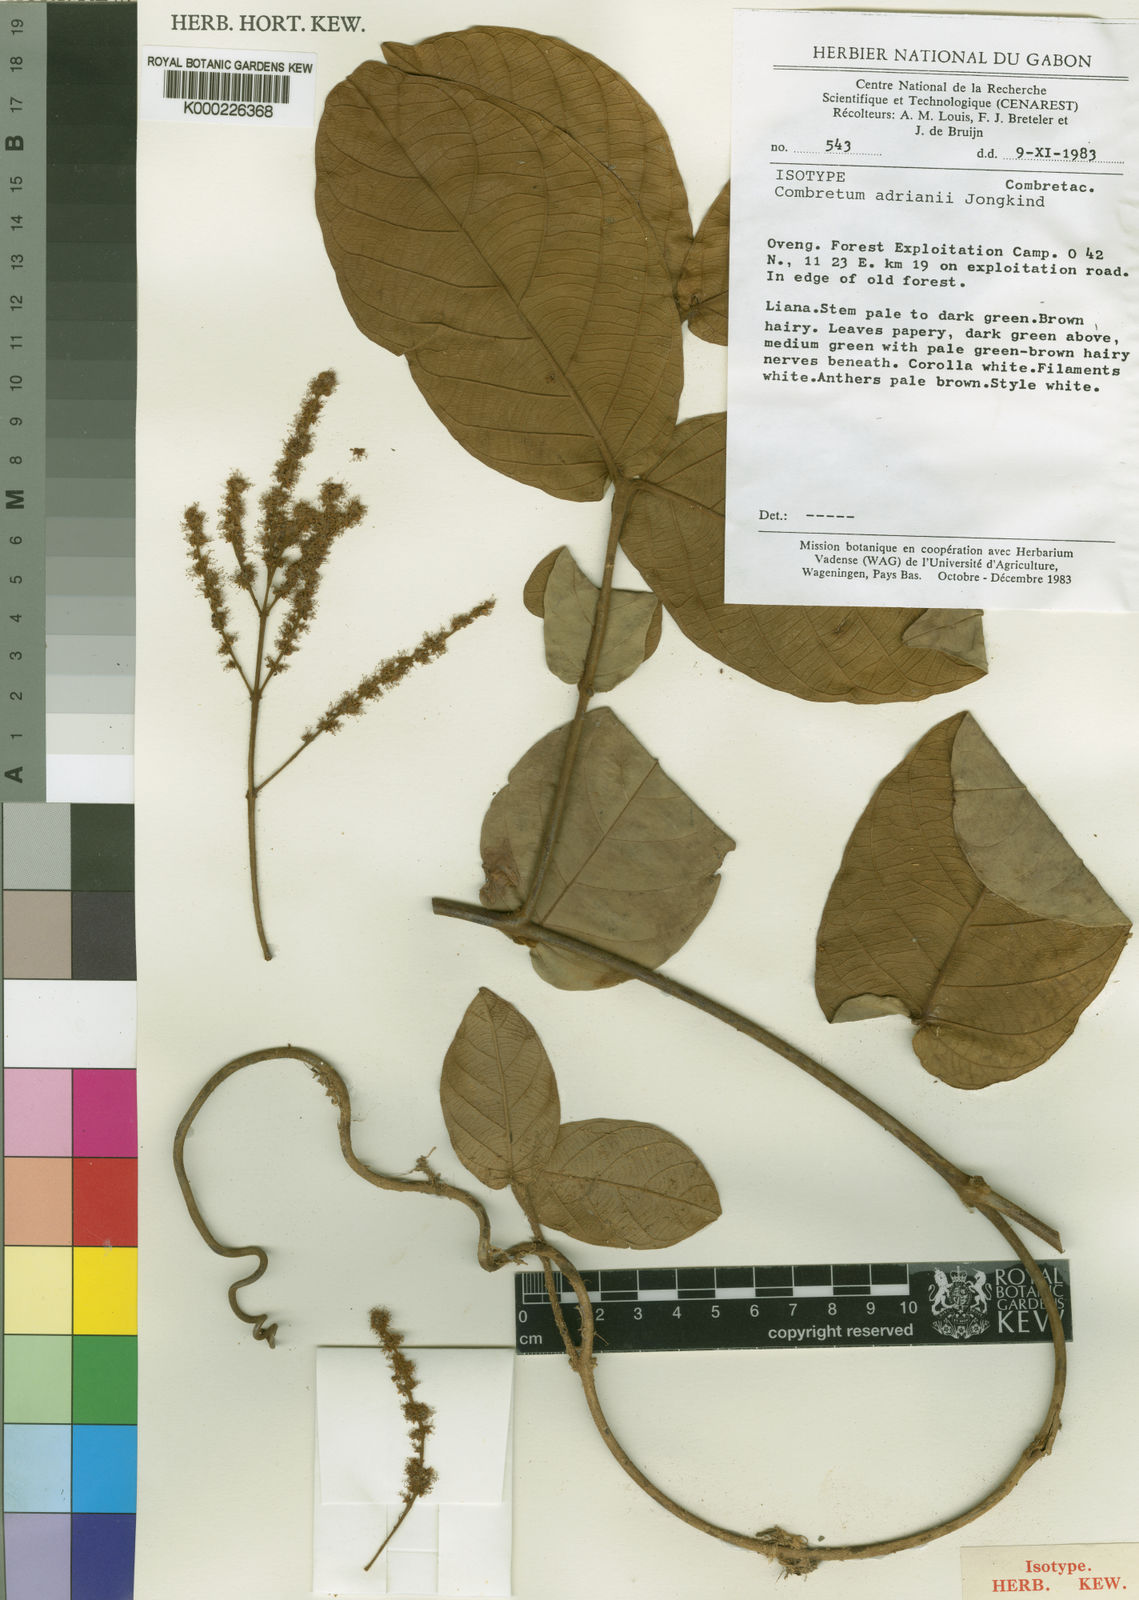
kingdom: Plantae
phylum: Tracheophyta
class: Magnoliopsida
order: Myrtales
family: Combretaceae
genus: Combretum
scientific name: Combretum adrianii
